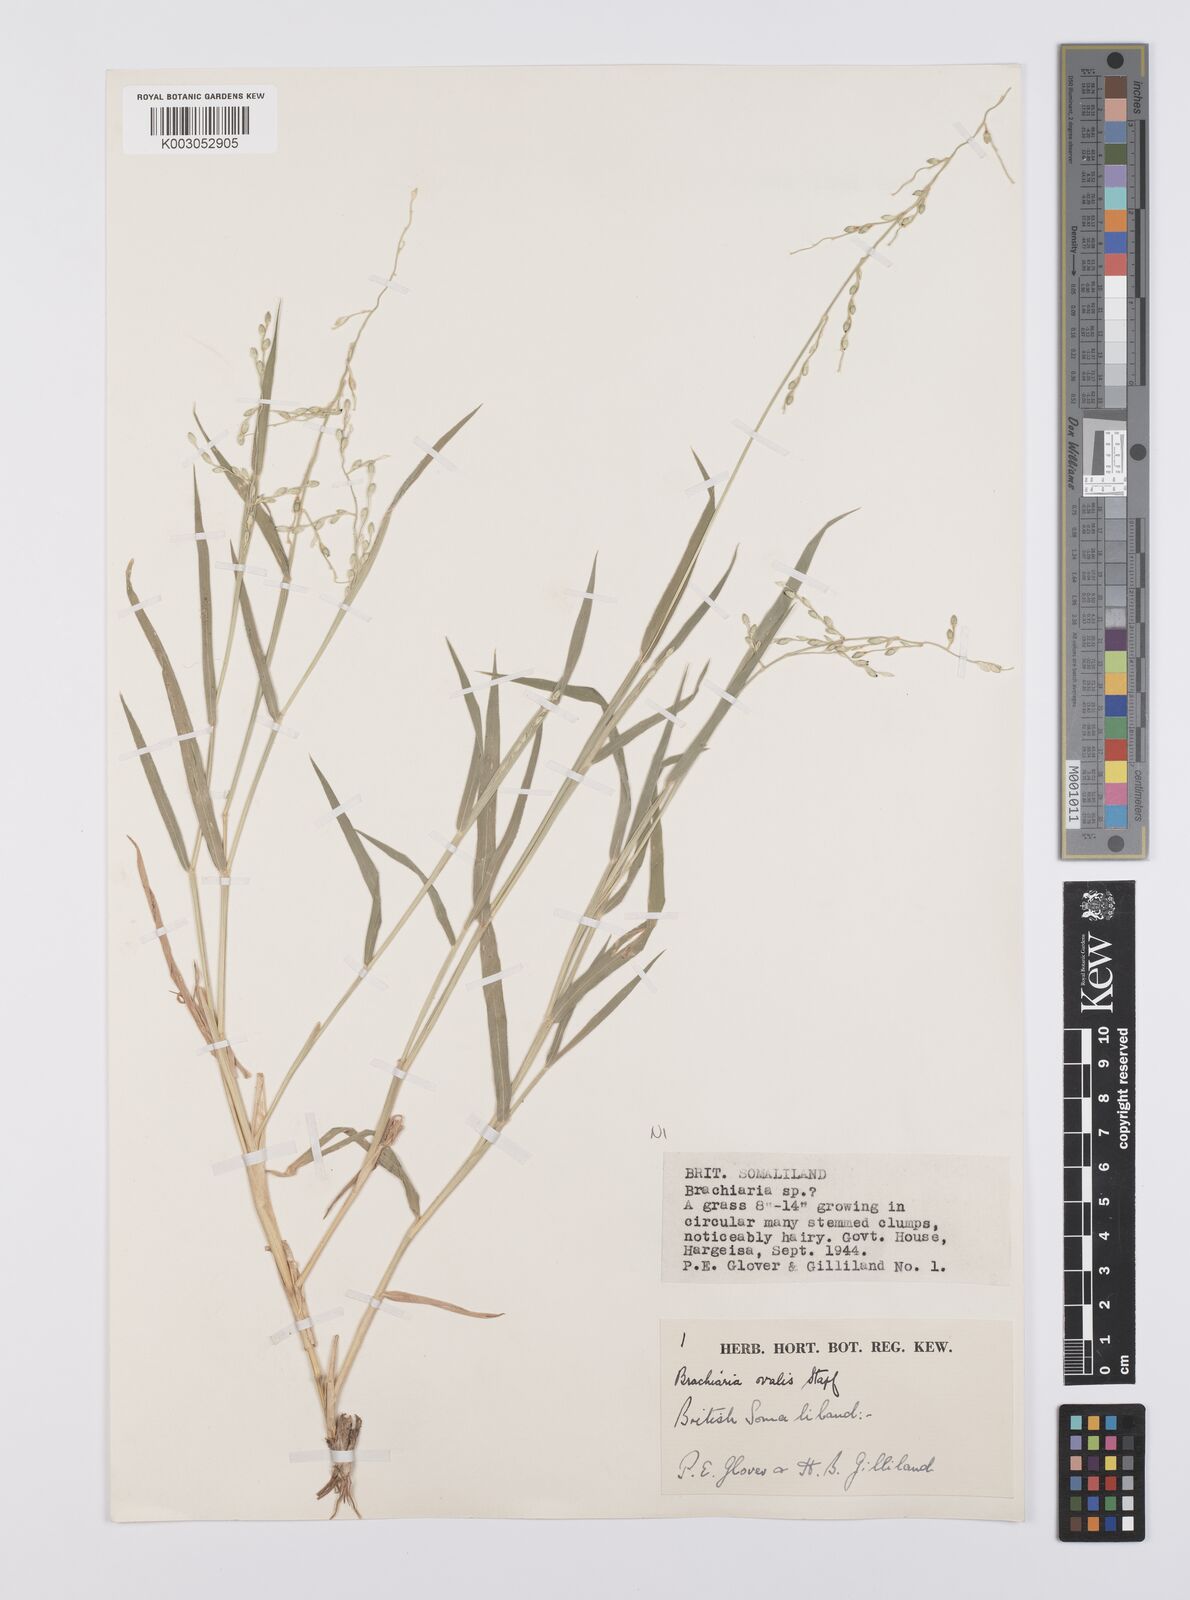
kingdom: Plantae
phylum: Tracheophyta
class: Liliopsida
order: Poales
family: Poaceae
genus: Urochloa
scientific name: Urochloa ovalis
